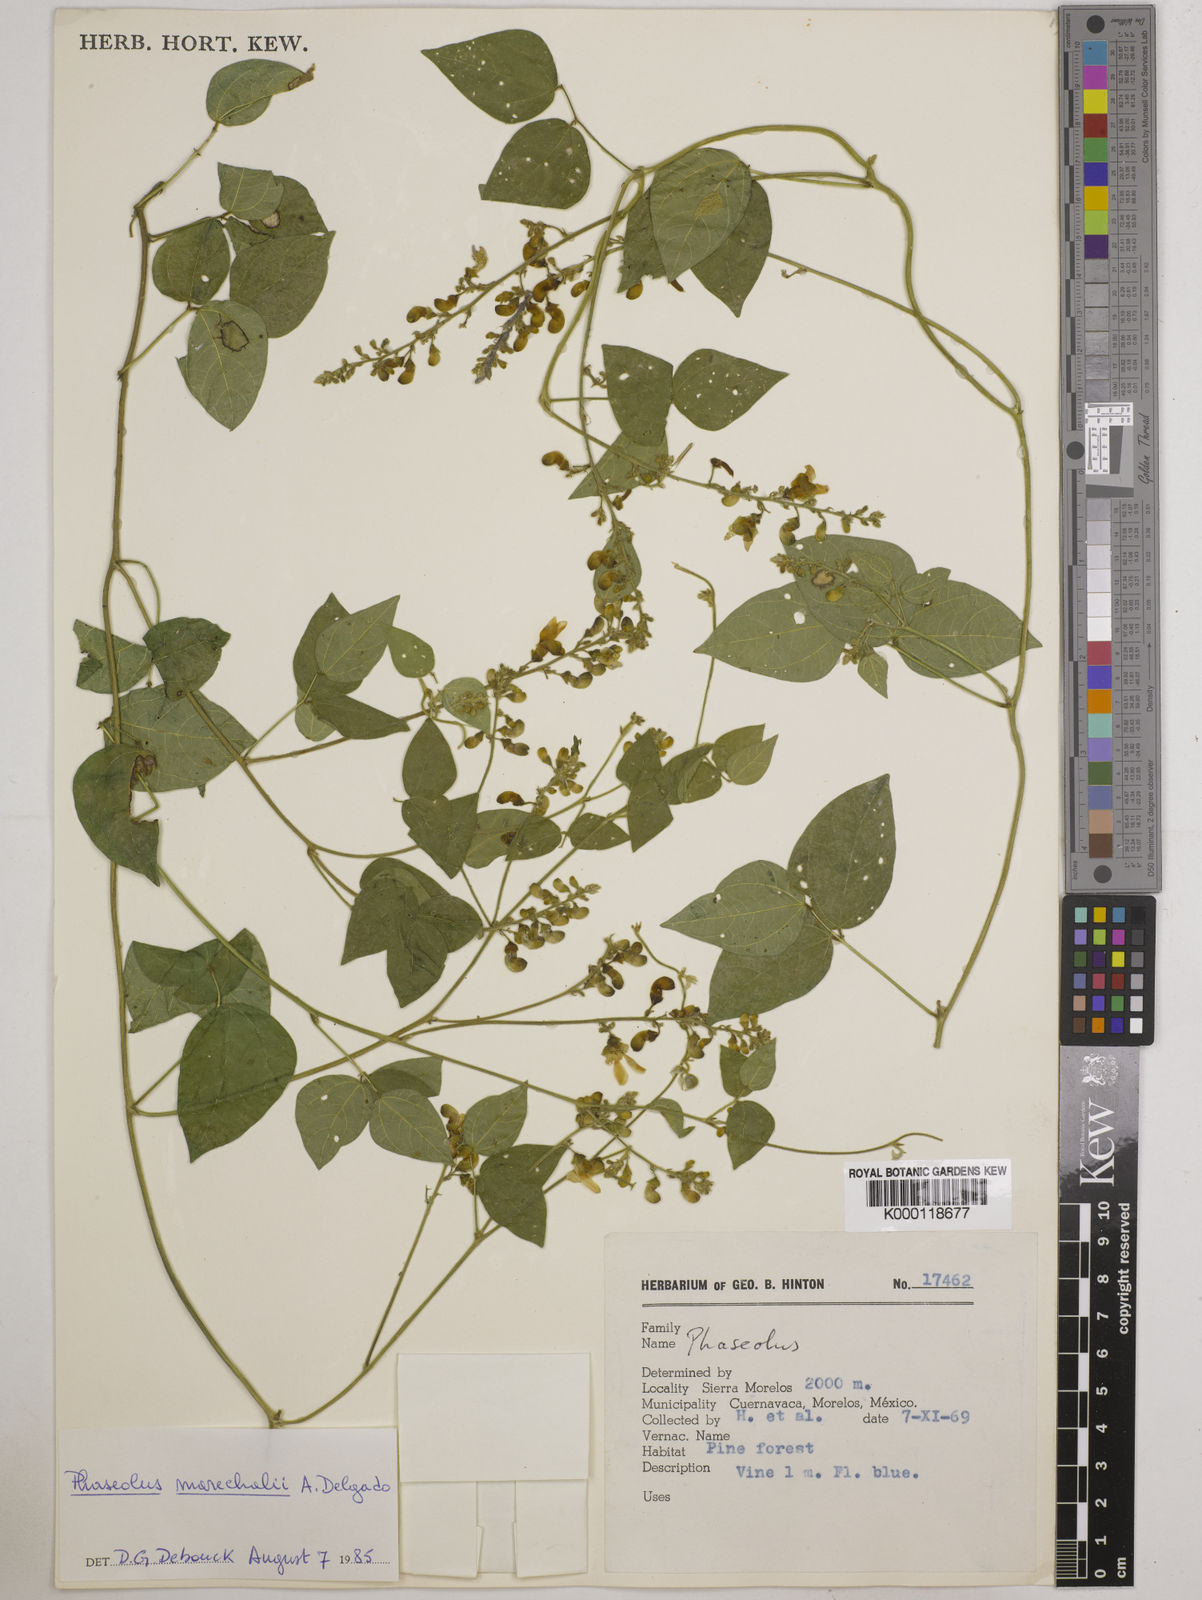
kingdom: Plantae
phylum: Tracheophyta
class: Magnoliopsida
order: Fabales
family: Fabaceae
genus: Phaseolus
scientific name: Phaseolus marechalii
